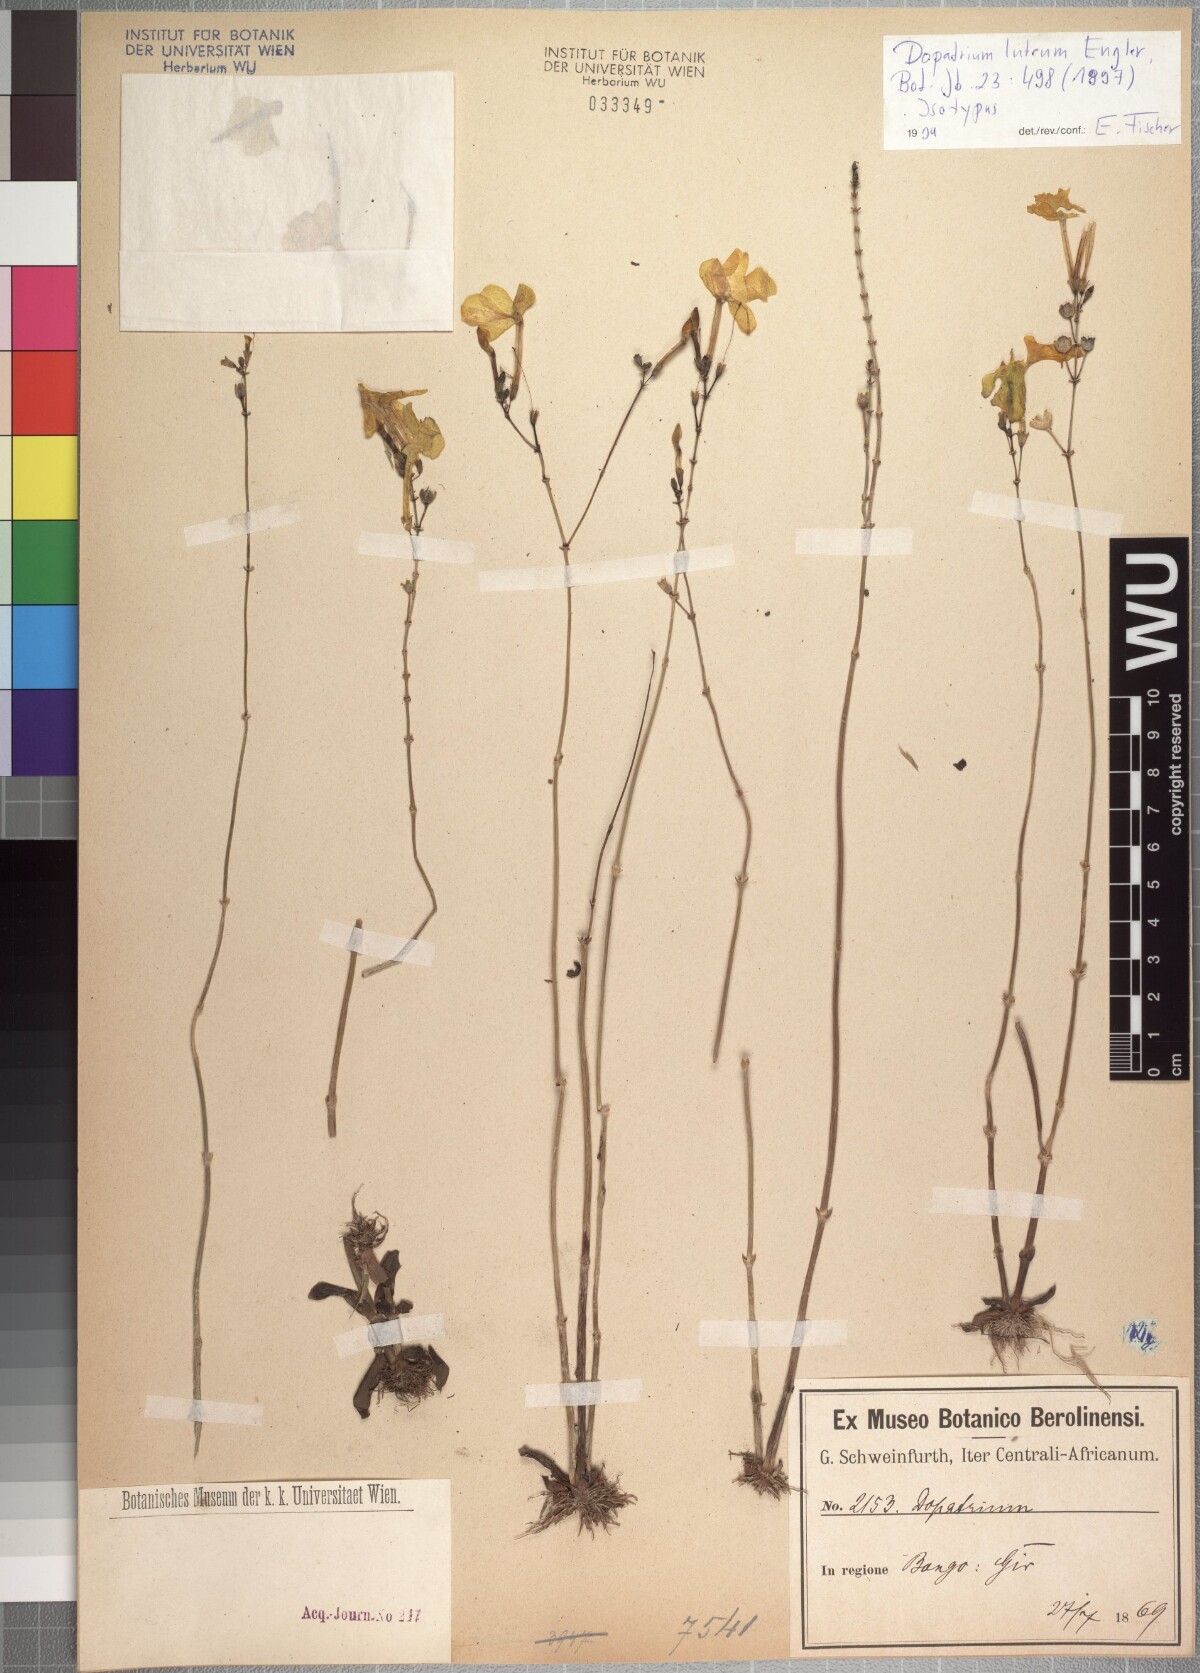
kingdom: Plantae
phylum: Tracheophyta
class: Magnoliopsida
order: Lamiales
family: Plantaginaceae
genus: Dopatrium
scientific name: Dopatrium macranthum
